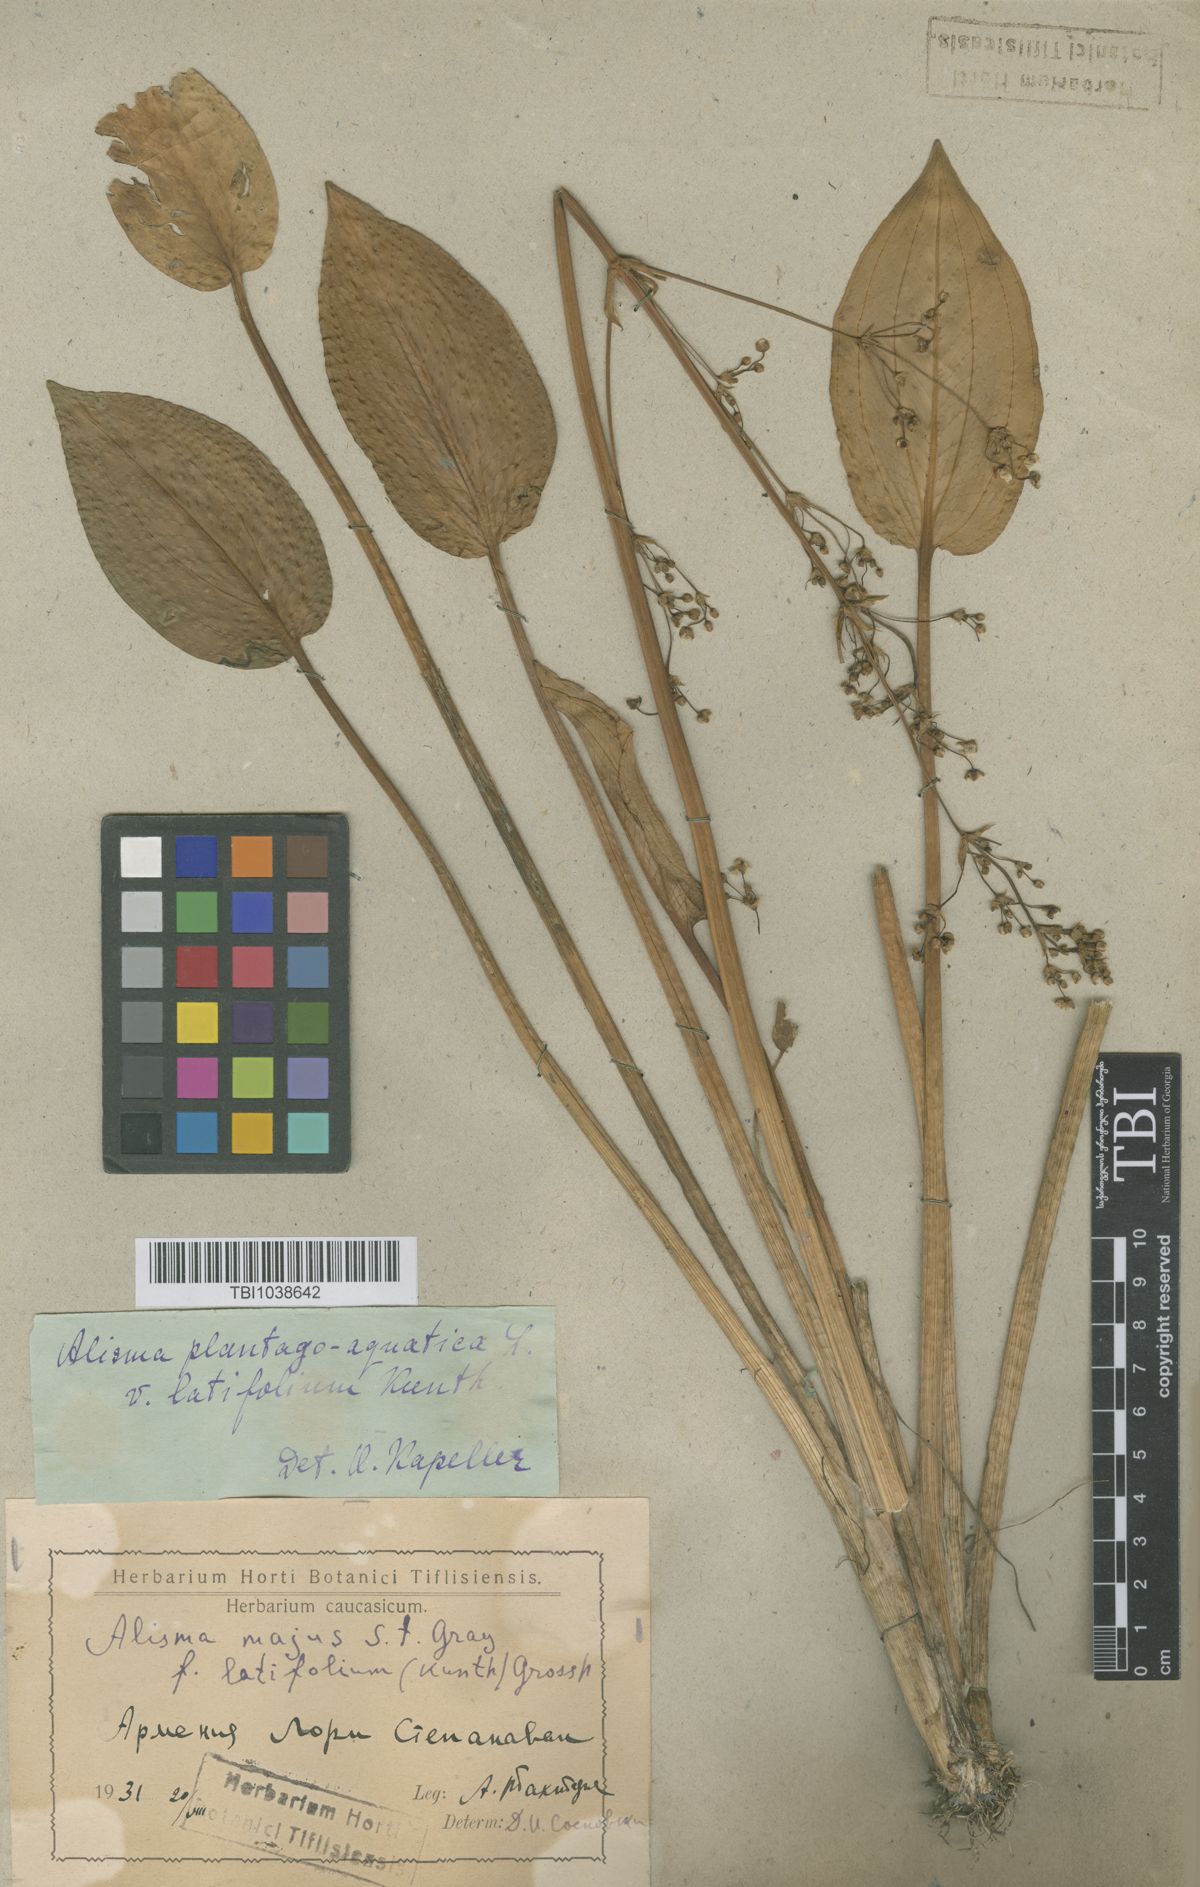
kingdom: Plantae
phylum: Tracheophyta
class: Liliopsida
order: Alismatales
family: Alismataceae
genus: Alisma
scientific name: Alisma plantago-aquatica
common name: Water-plantain
